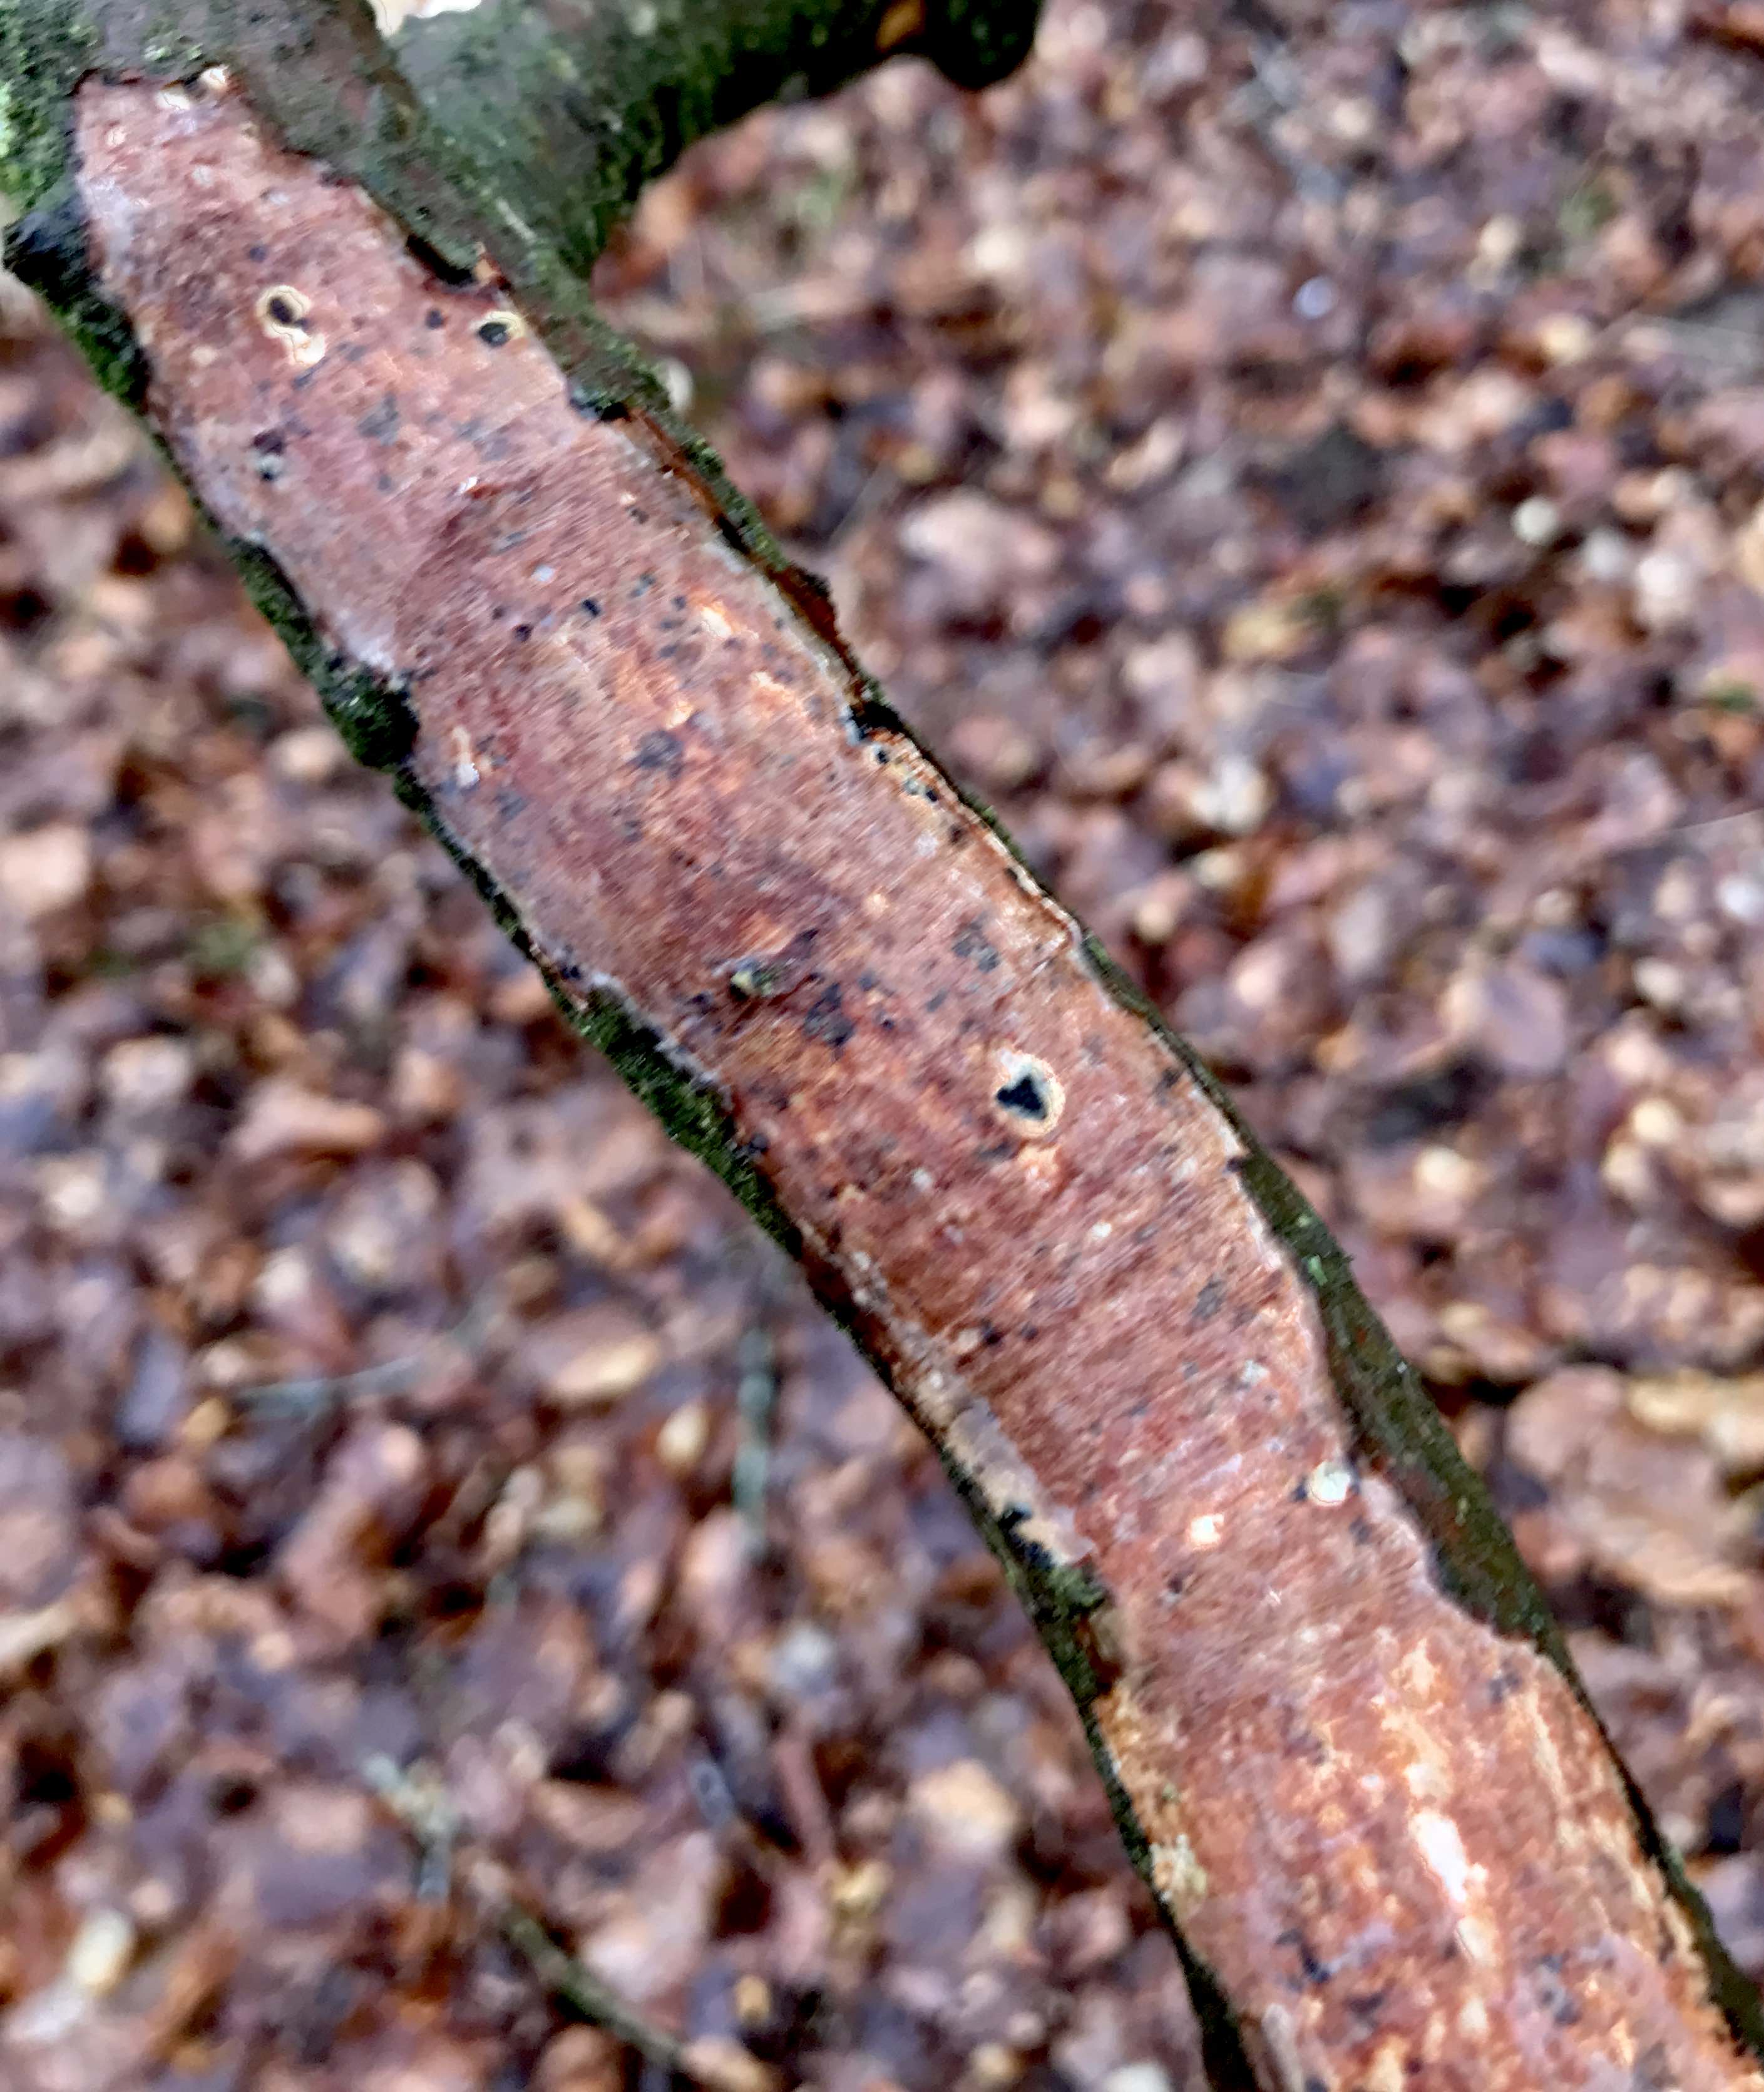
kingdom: Fungi
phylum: Basidiomycota
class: Agaricomycetes
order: Corticiales
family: Vuilleminiaceae
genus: Vuilleminia
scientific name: Vuilleminia comedens
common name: almindelig barksprænger
